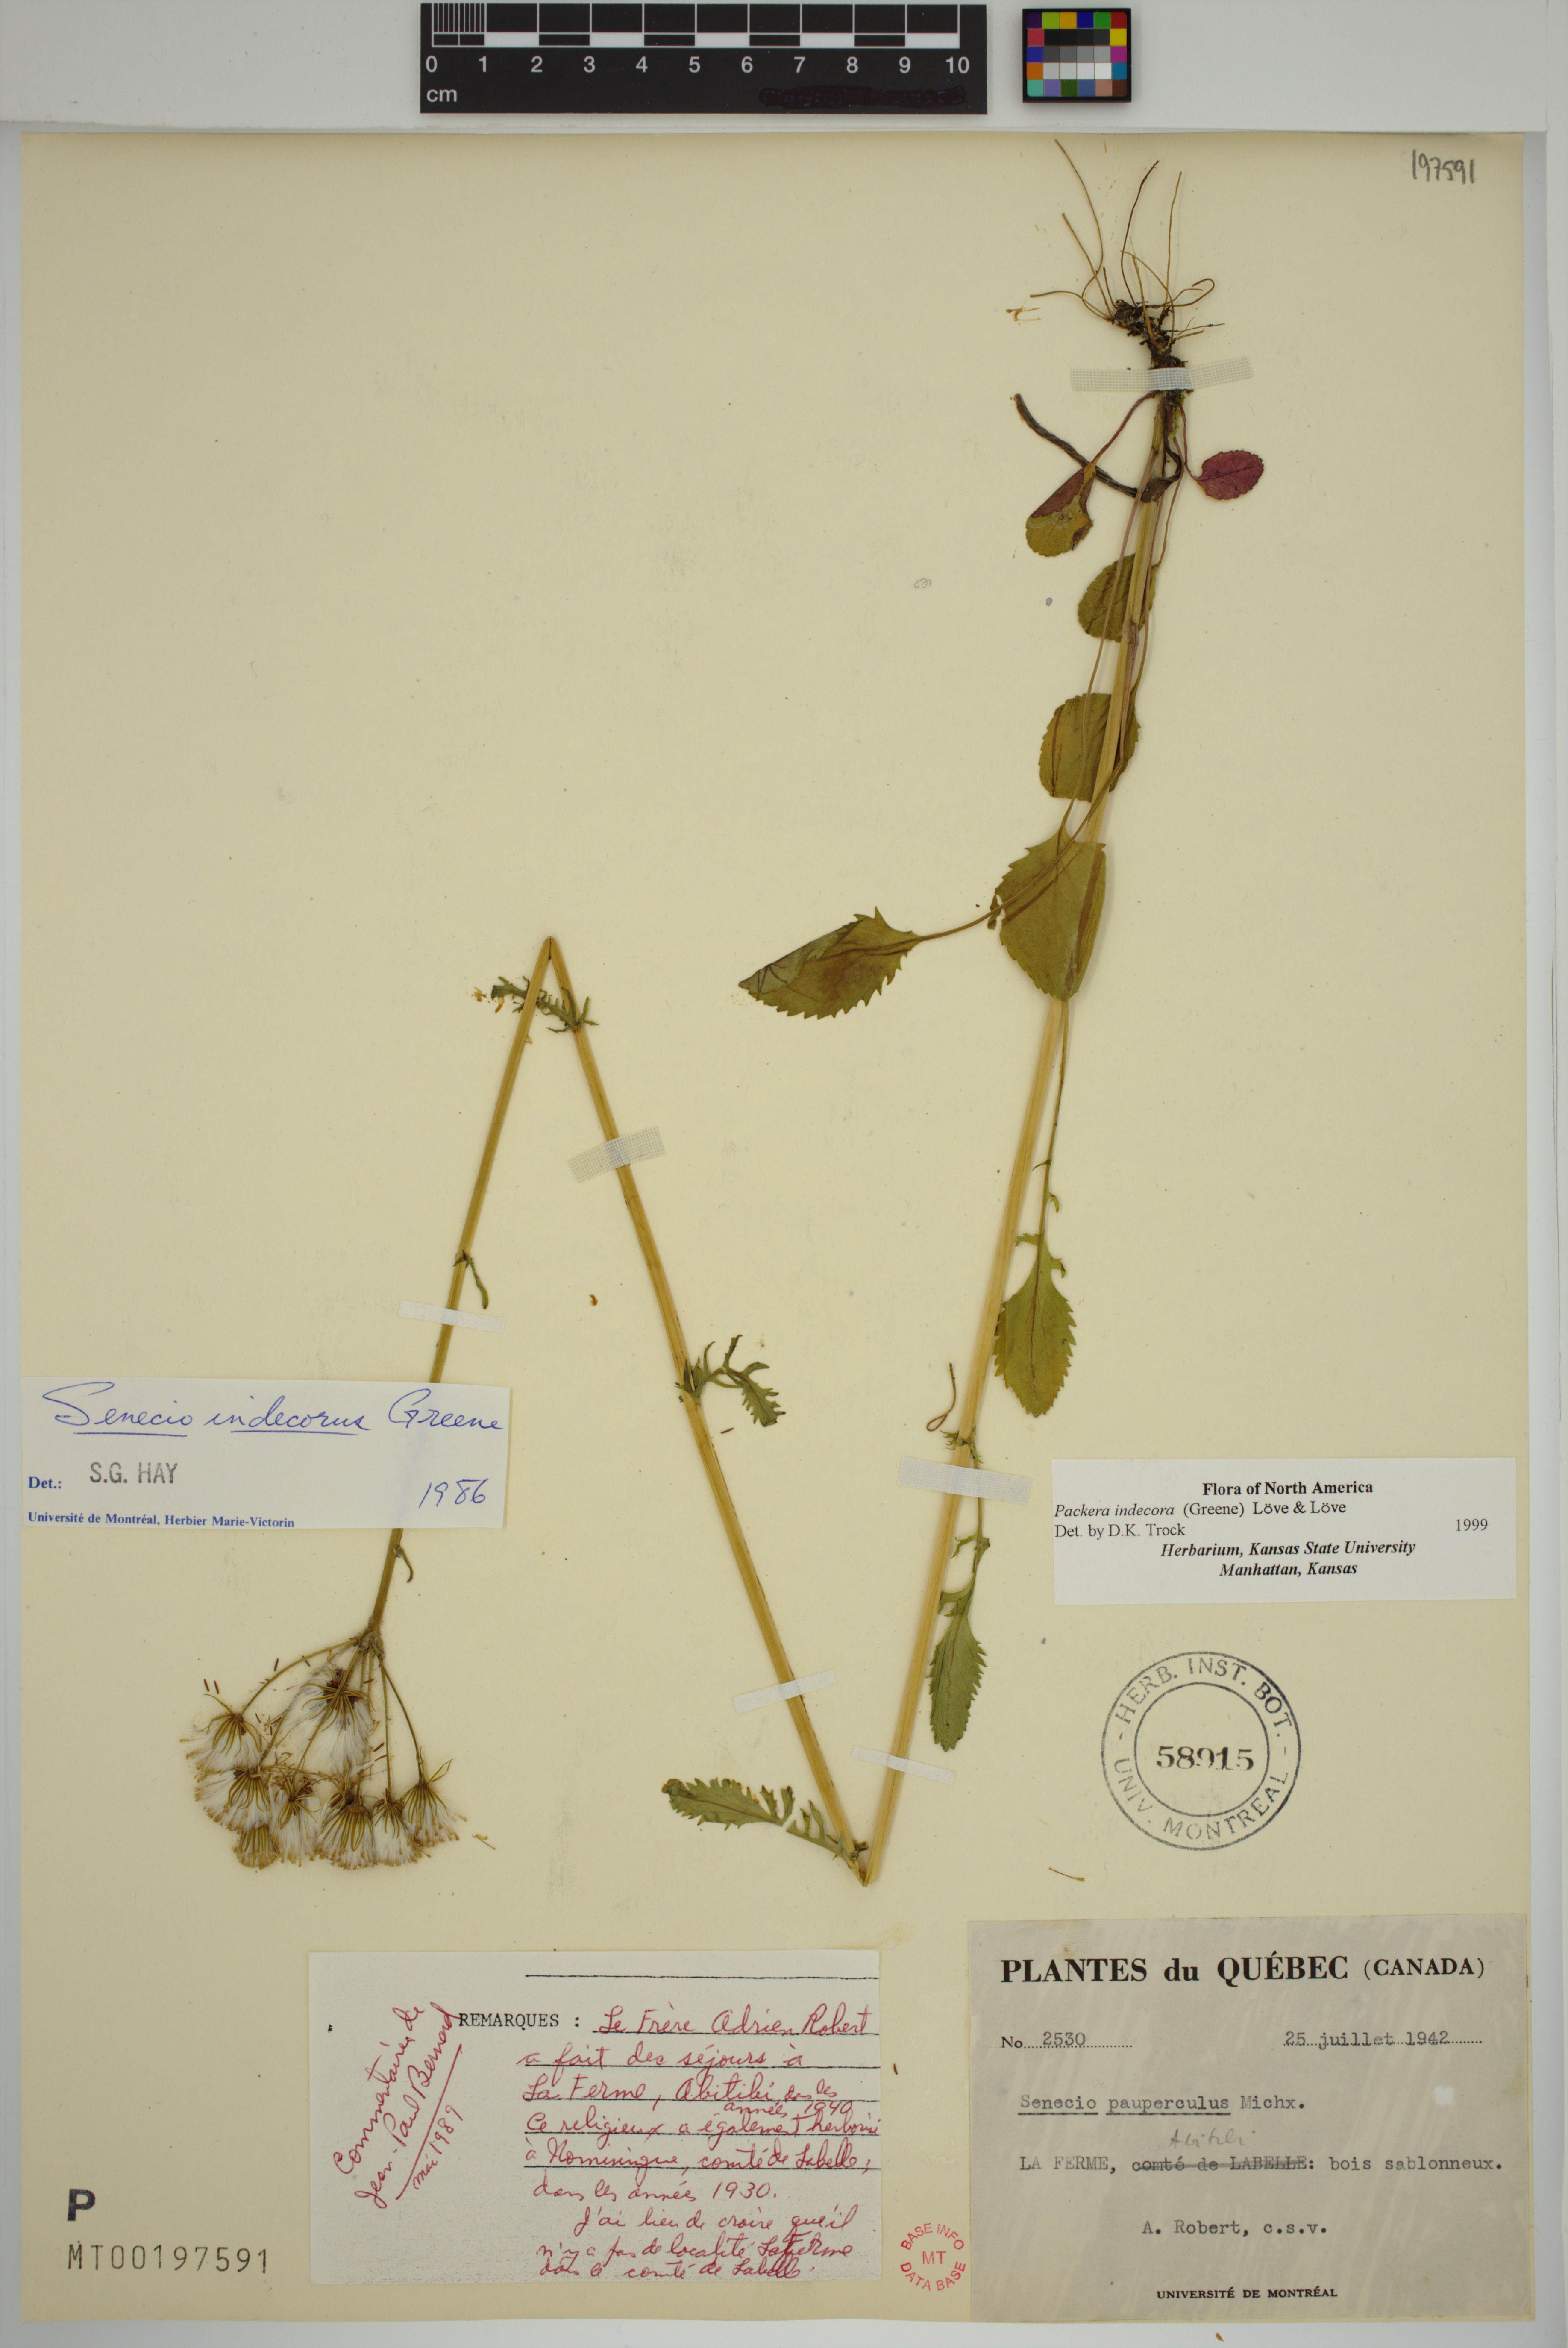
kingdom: Plantae
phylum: Tracheophyta
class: Magnoliopsida
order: Asterales
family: Asteraceae
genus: Packera
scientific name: Packera indecora
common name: Elegant groundsel
